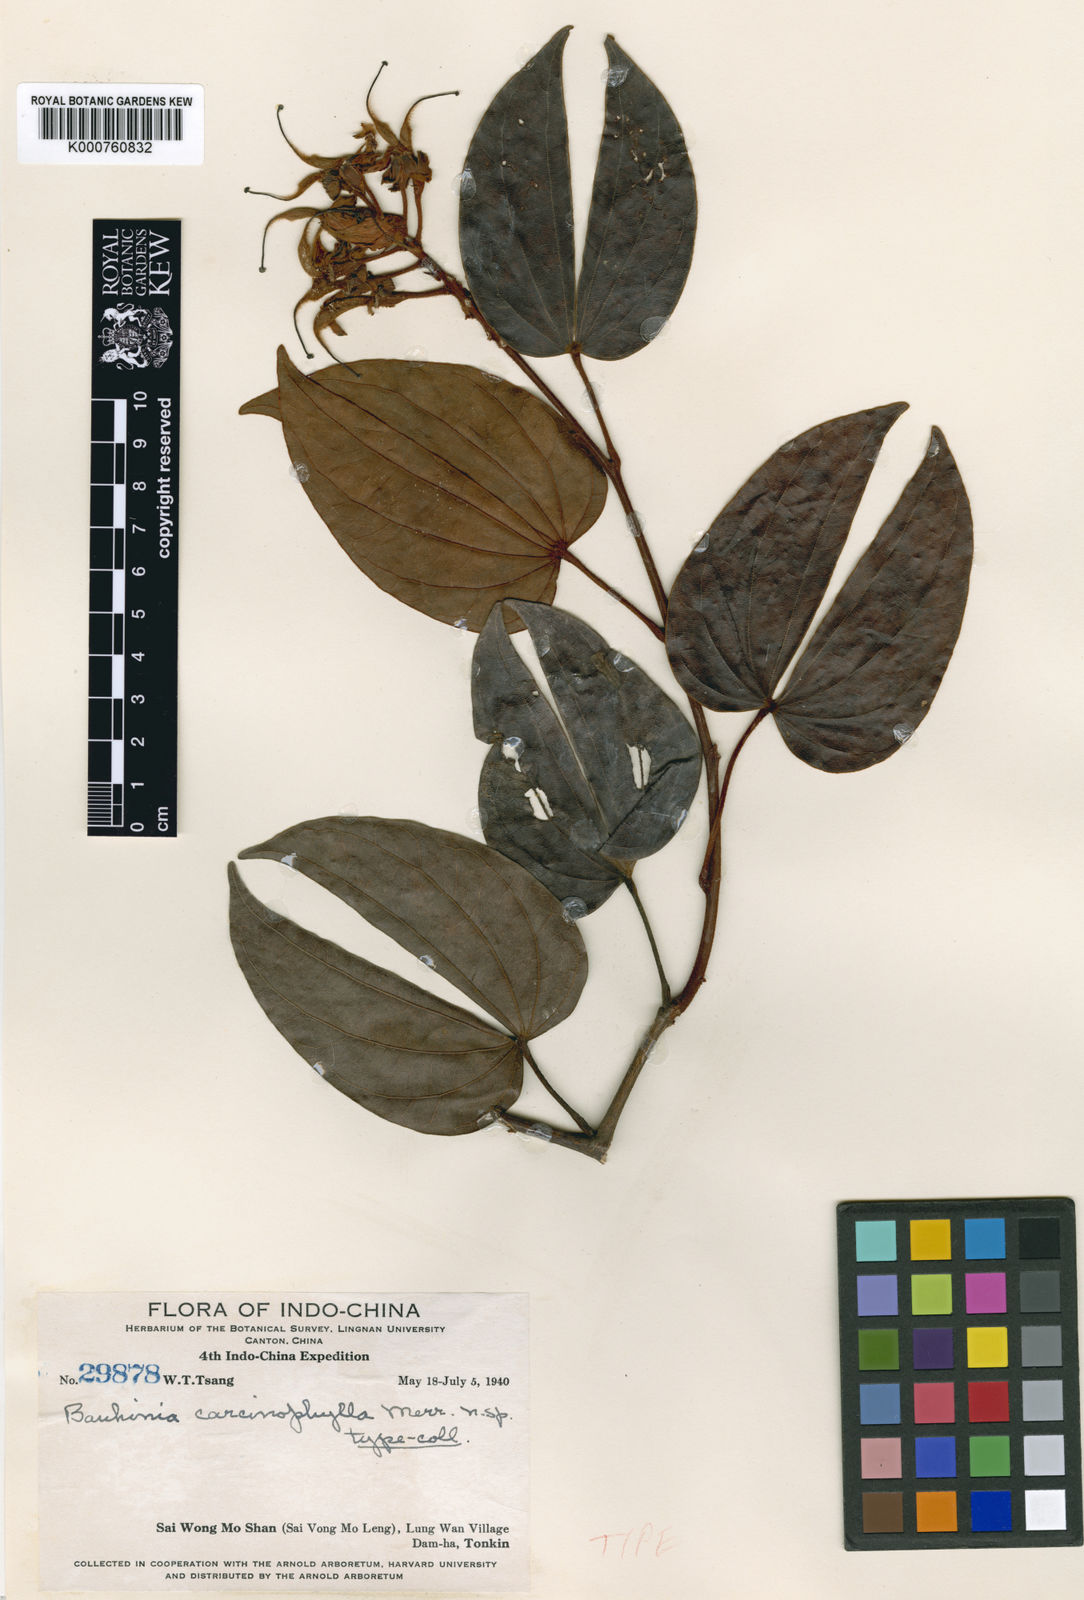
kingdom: Plantae
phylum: Tracheophyta
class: Magnoliopsida
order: Fabales
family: Fabaceae
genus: Phanera
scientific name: Phanera carcinophylla
